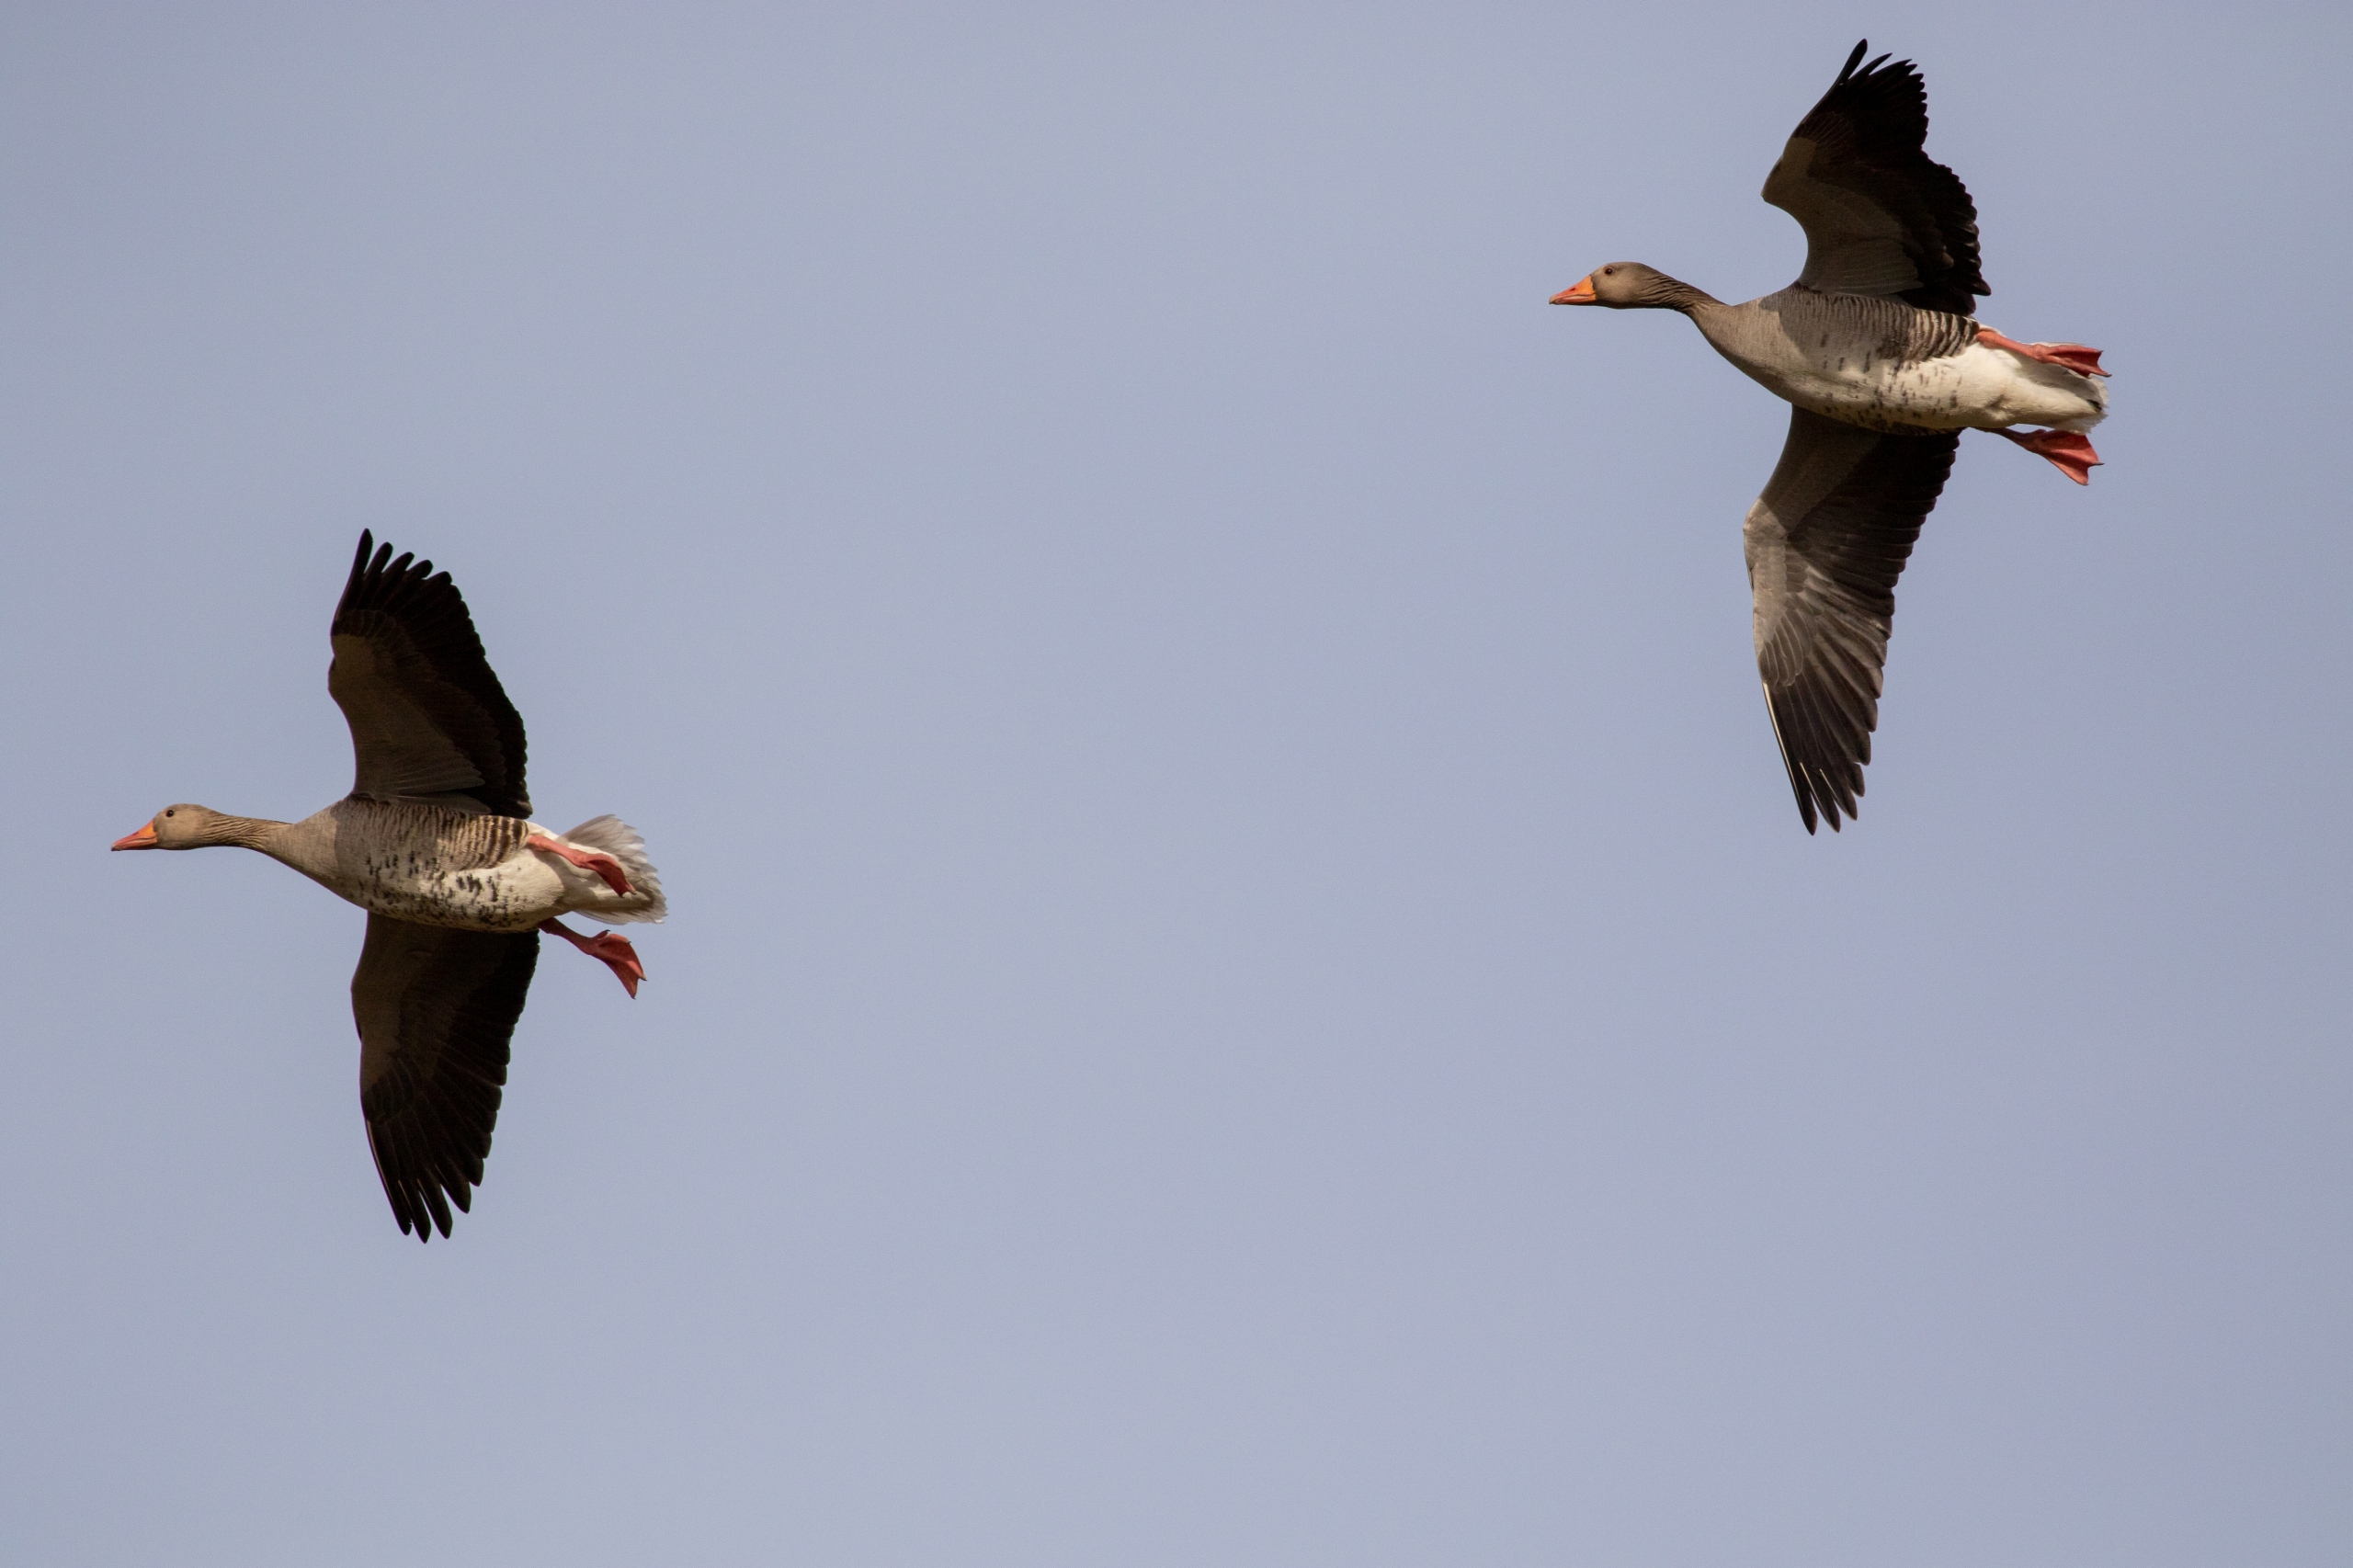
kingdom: Animalia
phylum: Chordata
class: Aves
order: Anseriformes
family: Anatidae
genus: Anser
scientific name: Anser anser
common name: Grågås
